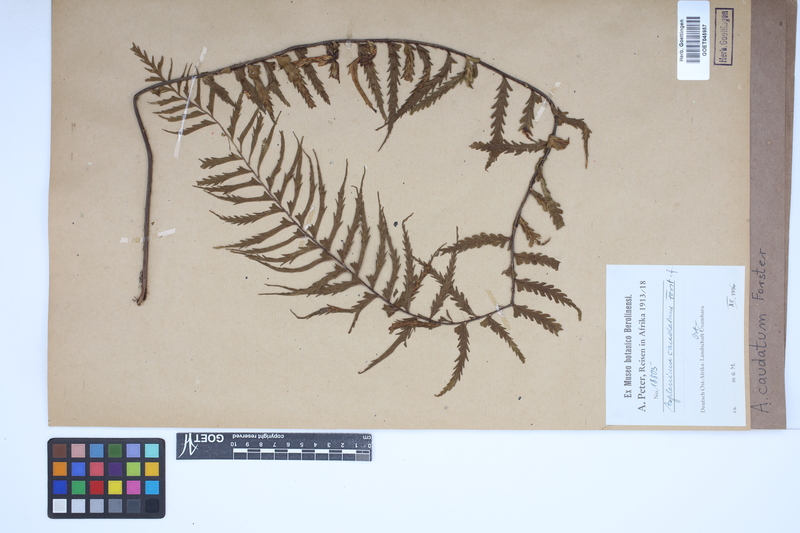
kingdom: Plantae
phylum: Tracheophyta
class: Polypodiopsida
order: Polypodiales
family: Aspleniaceae
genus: Asplenium
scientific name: Asplenium caudatum
